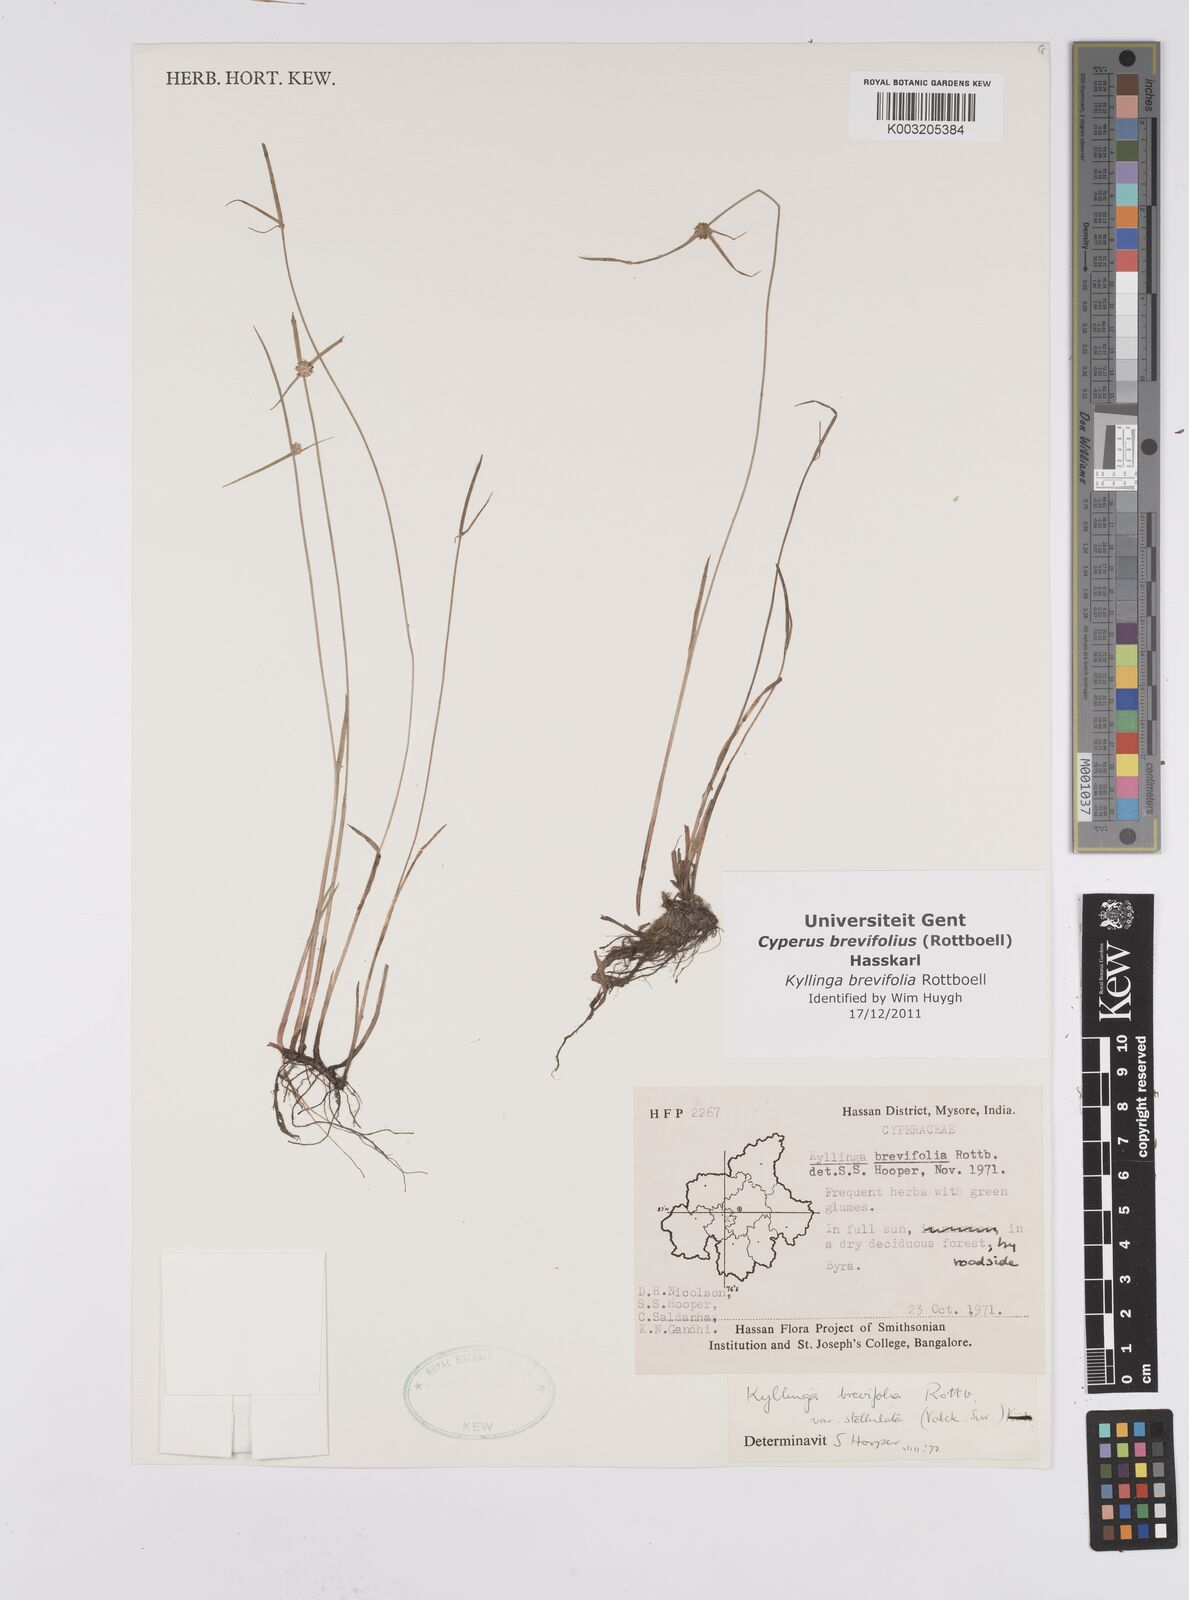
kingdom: Plantae
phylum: Tracheophyta
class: Liliopsida
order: Poales
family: Cyperaceae
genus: Cyperus
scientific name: Cyperus brevifolius
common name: Globe kyllinga
